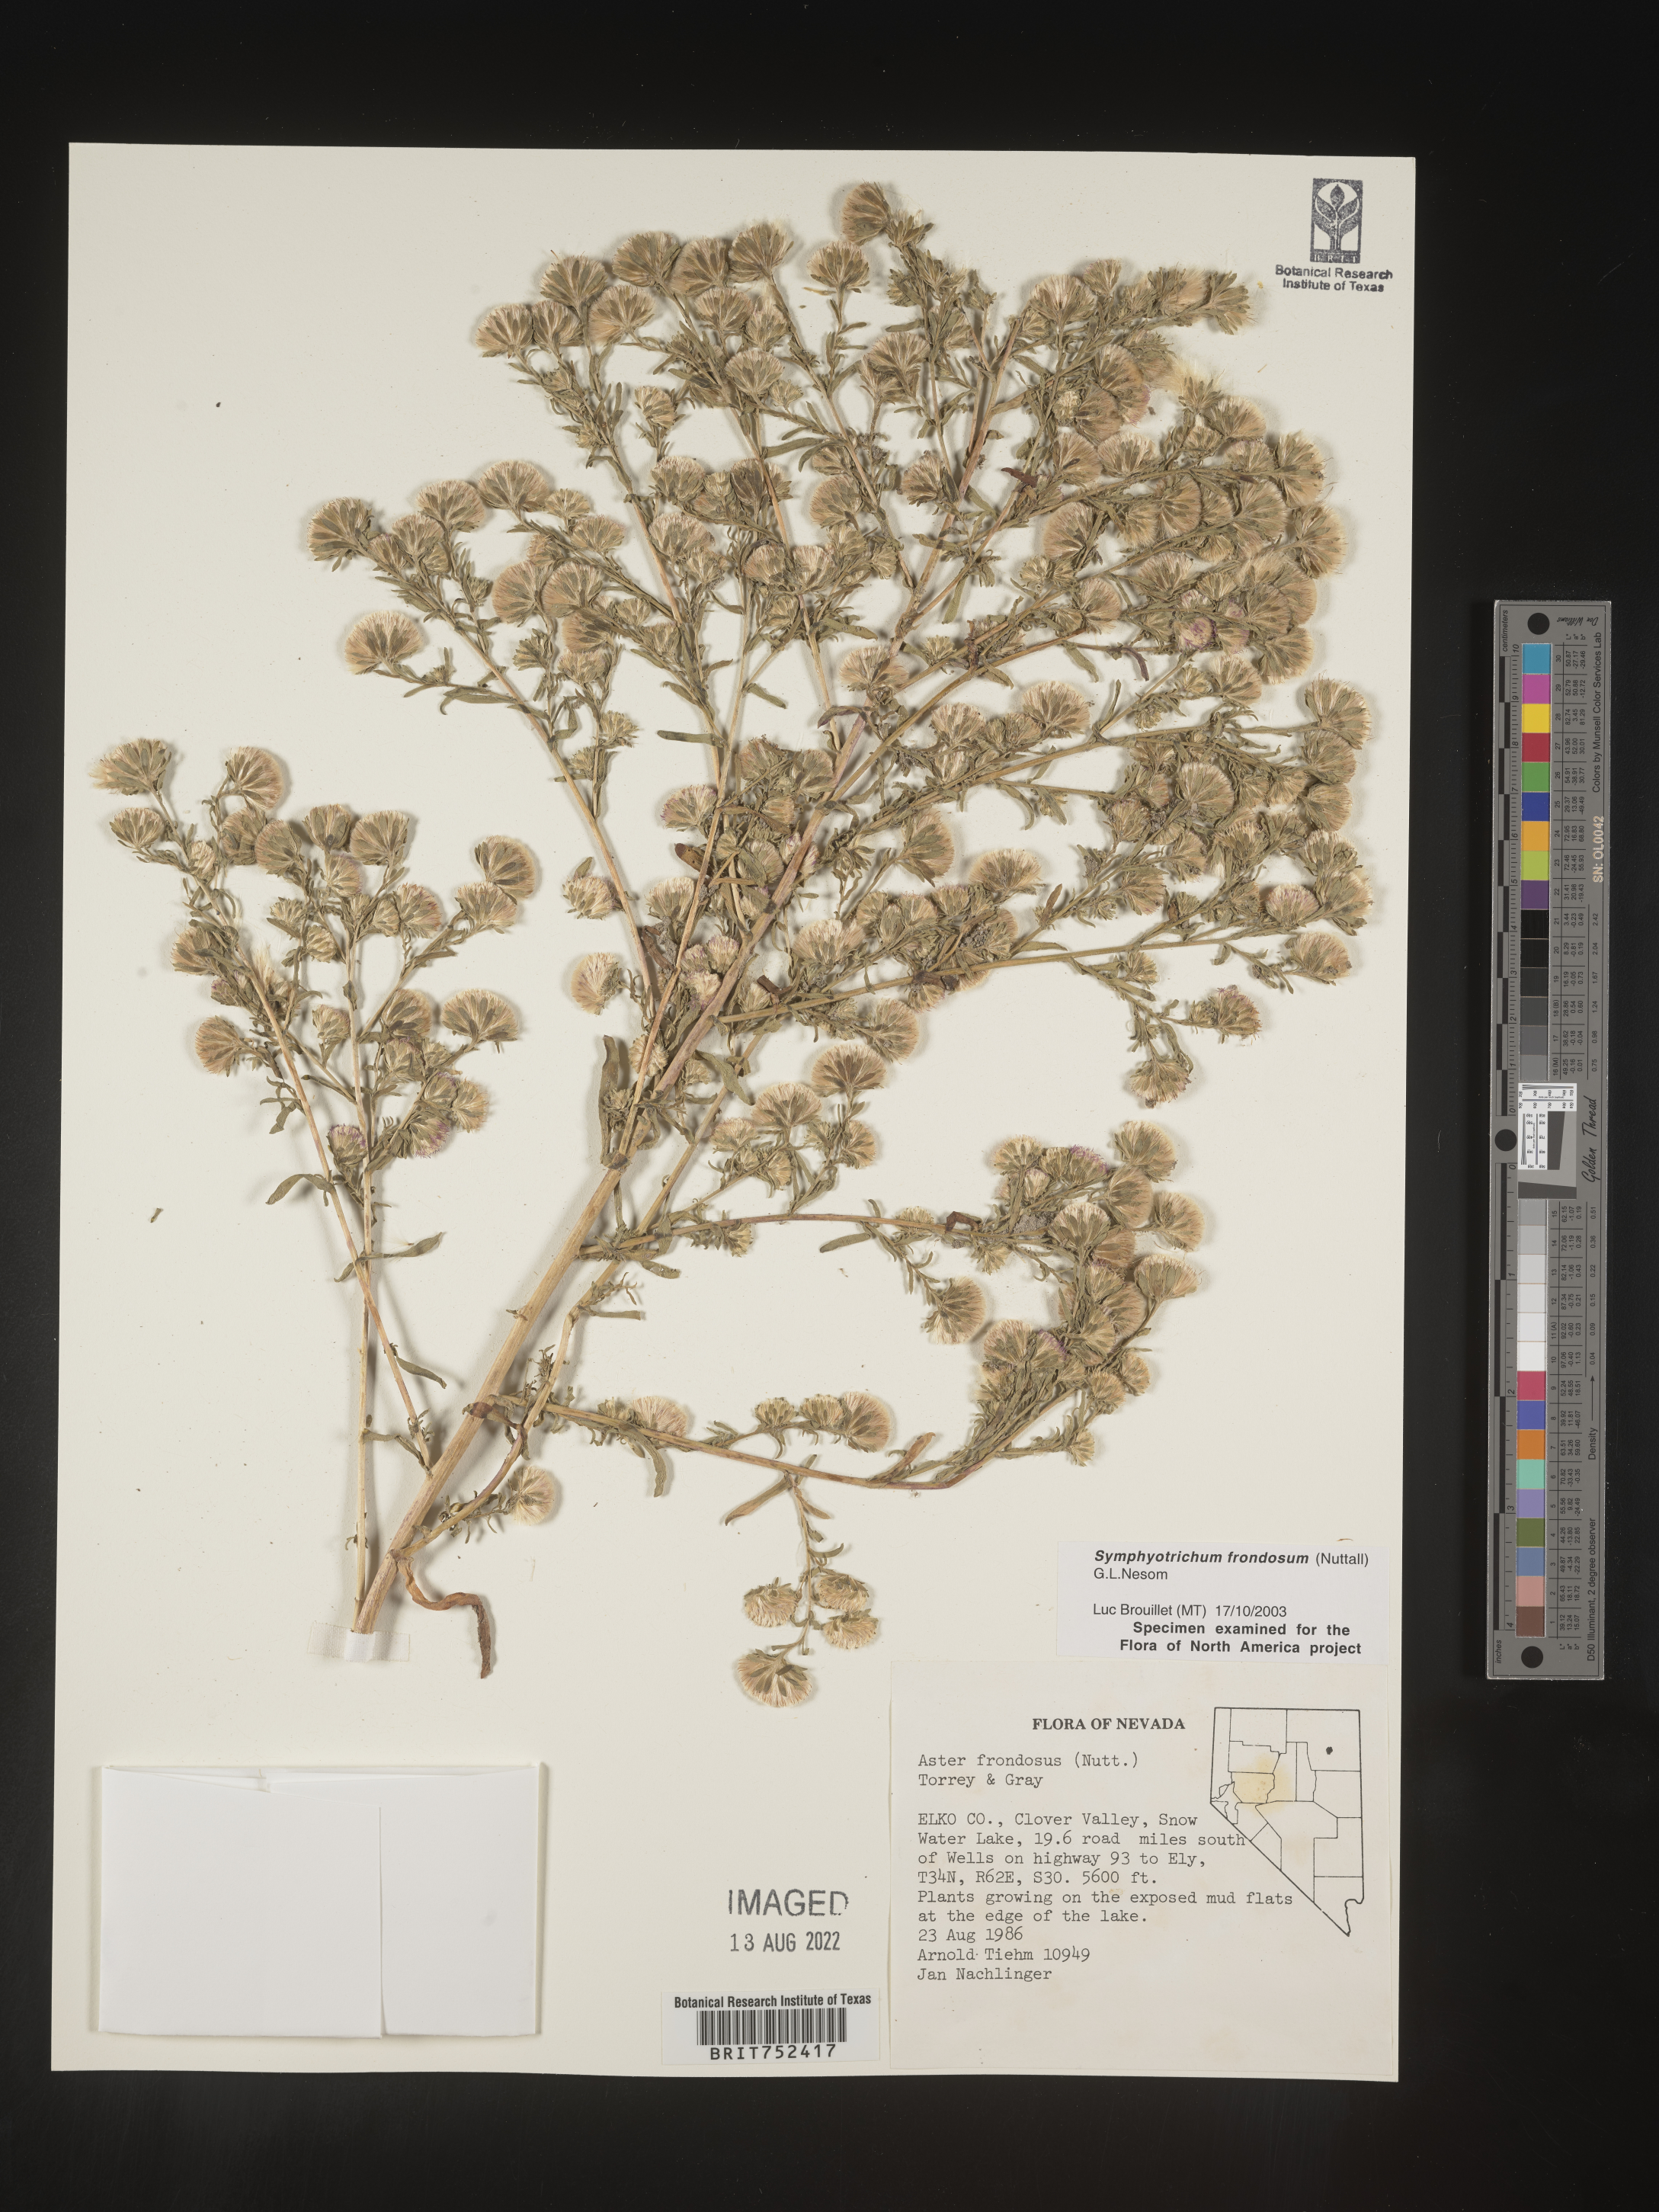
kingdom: Plantae
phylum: Tracheophyta
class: Magnoliopsida
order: Asterales
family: Asteraceae
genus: Symphyotrichum
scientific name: Symphyotrichum frondosum
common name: Leafy aster
